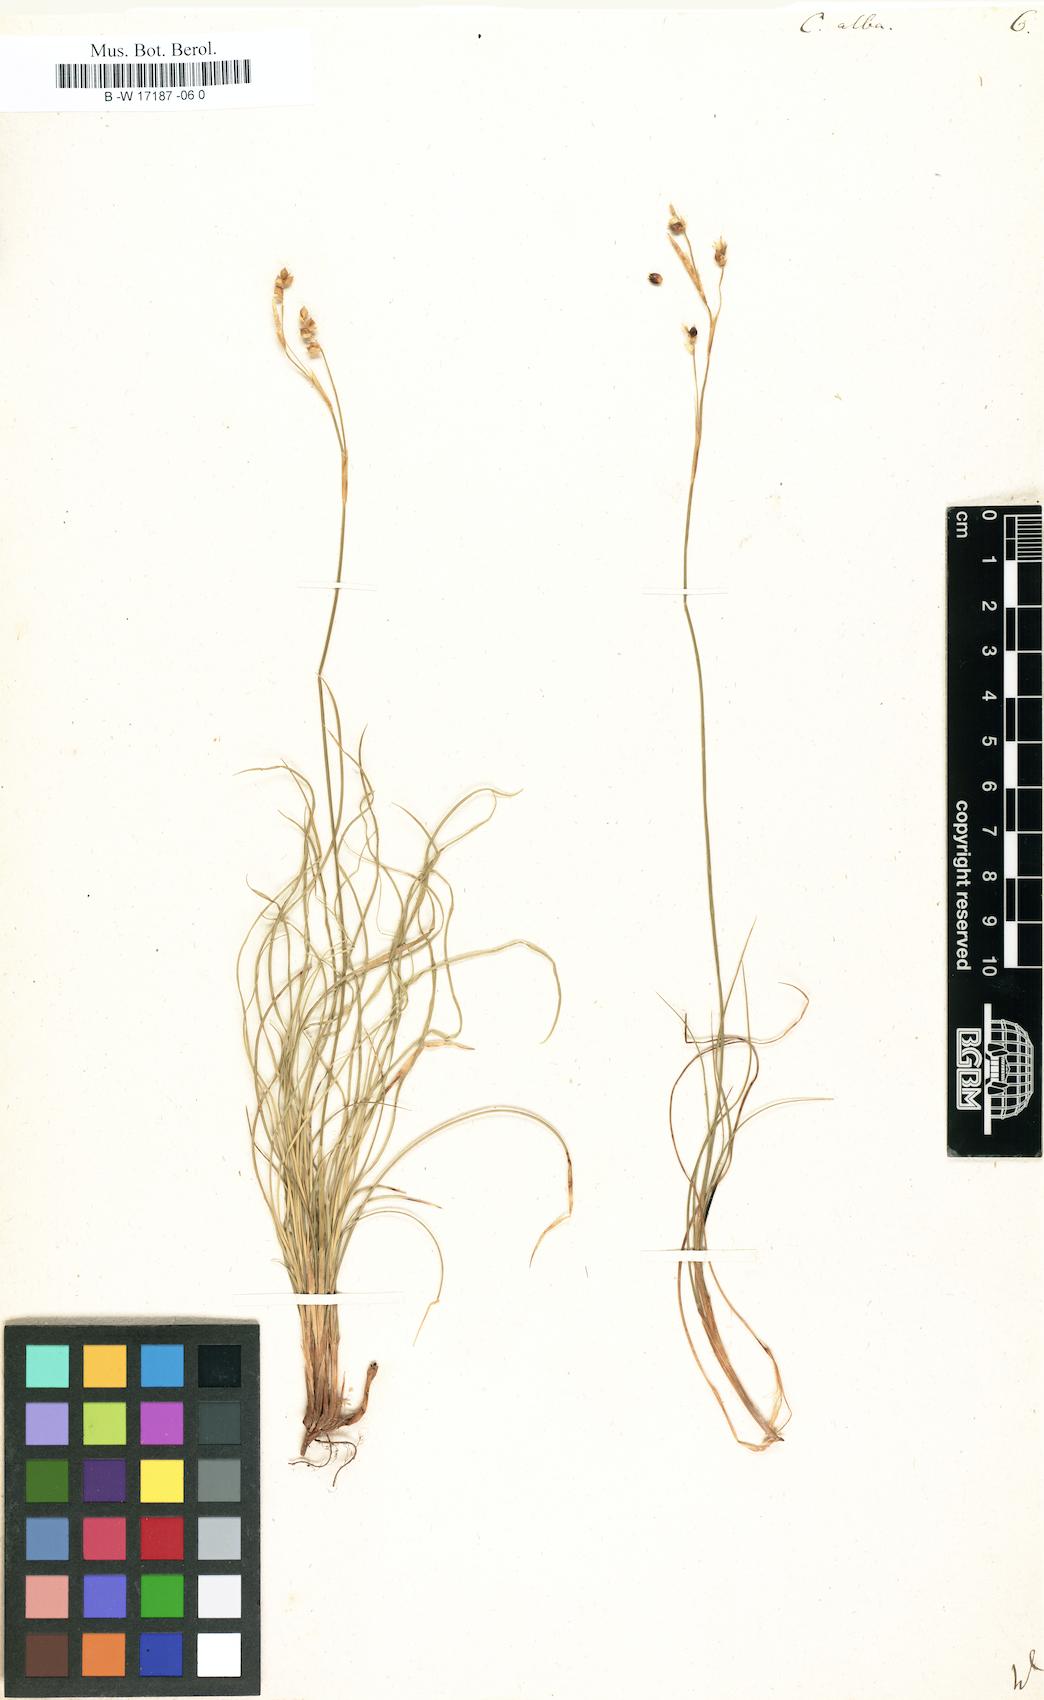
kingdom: Plantae
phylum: Tracheophyta
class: Liliopsida
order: Poales
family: Cyperaceae
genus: Carex
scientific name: Carex alba
